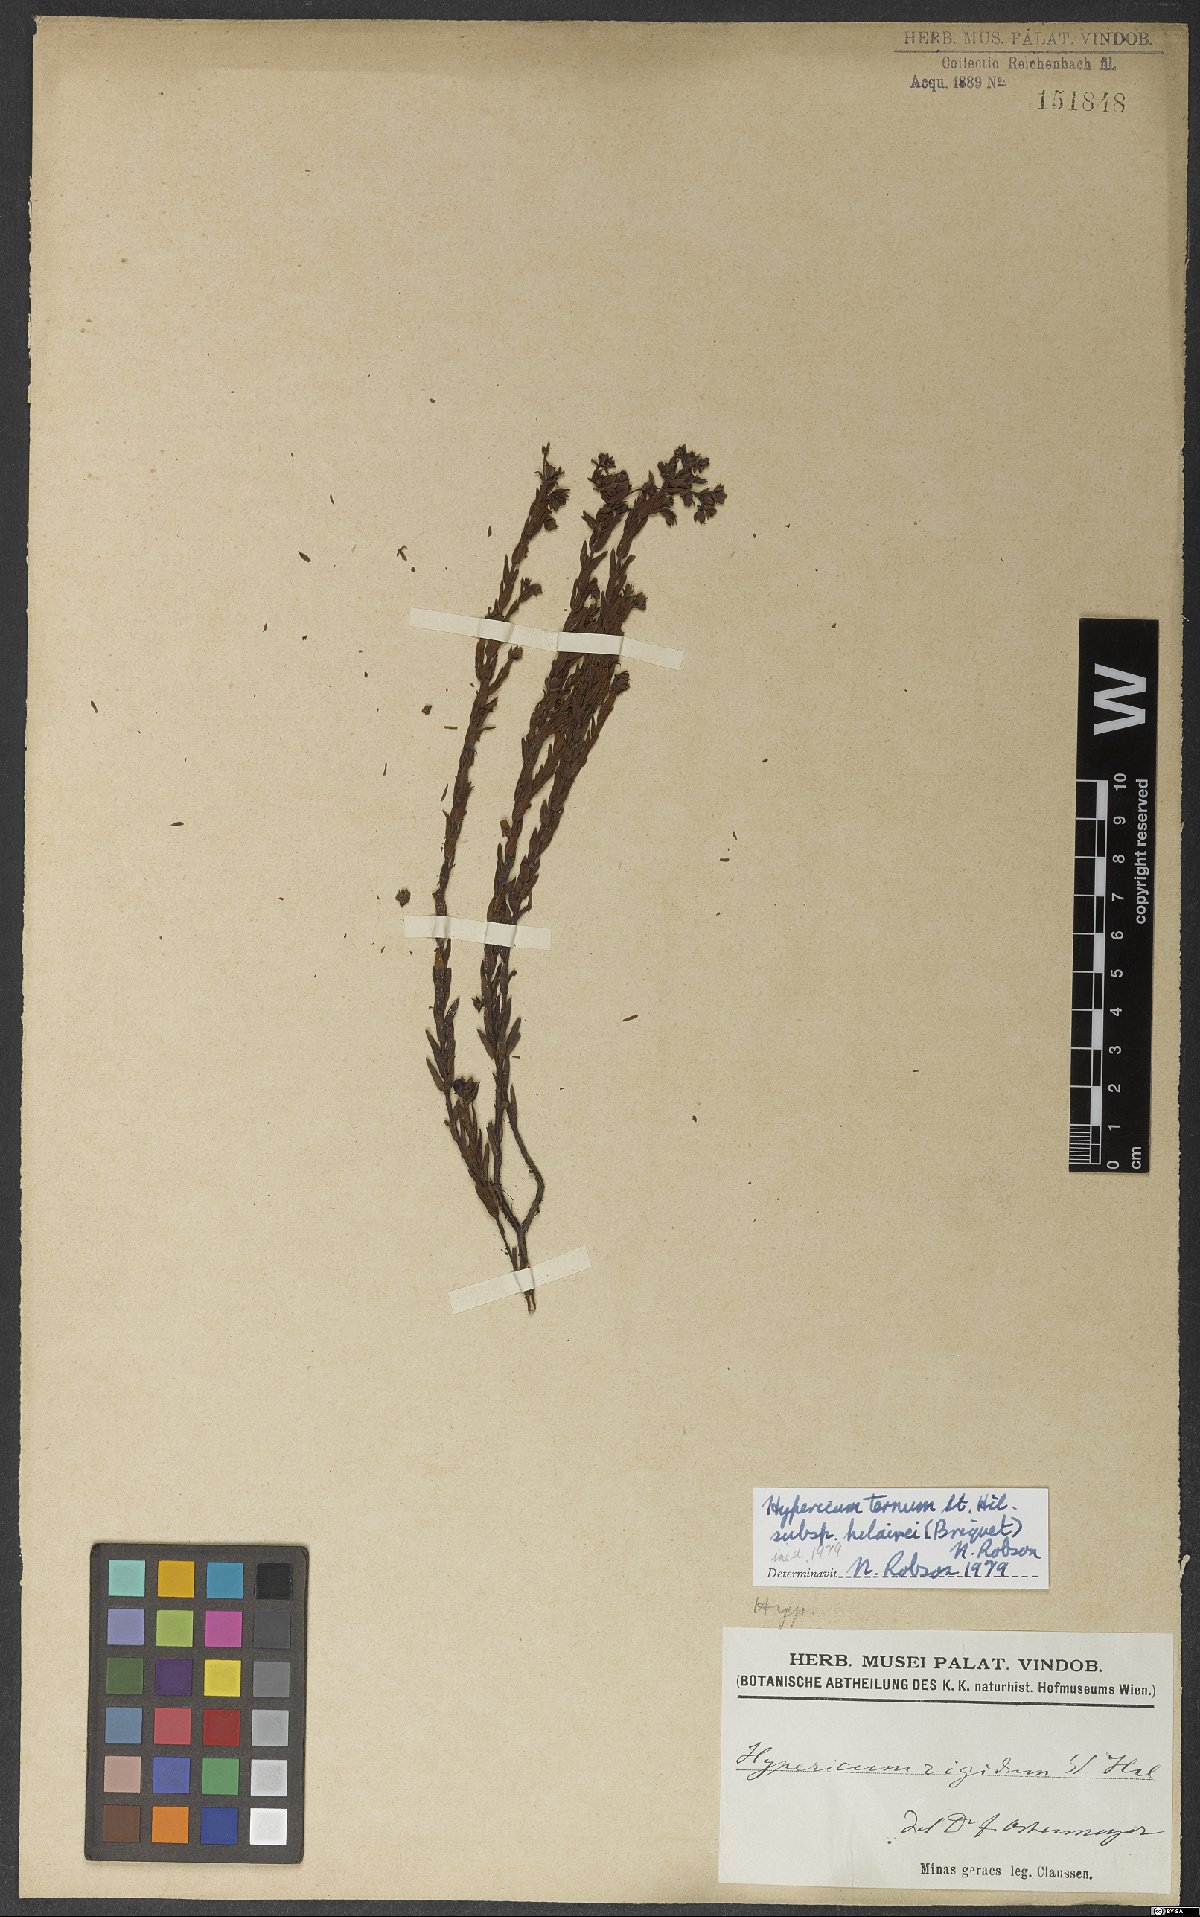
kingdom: Plantae
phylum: Tracheophyta
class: Magnoliopsida
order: Malpighiales
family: Hypericaceae
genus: Hypericum
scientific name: Hypericum ternum
